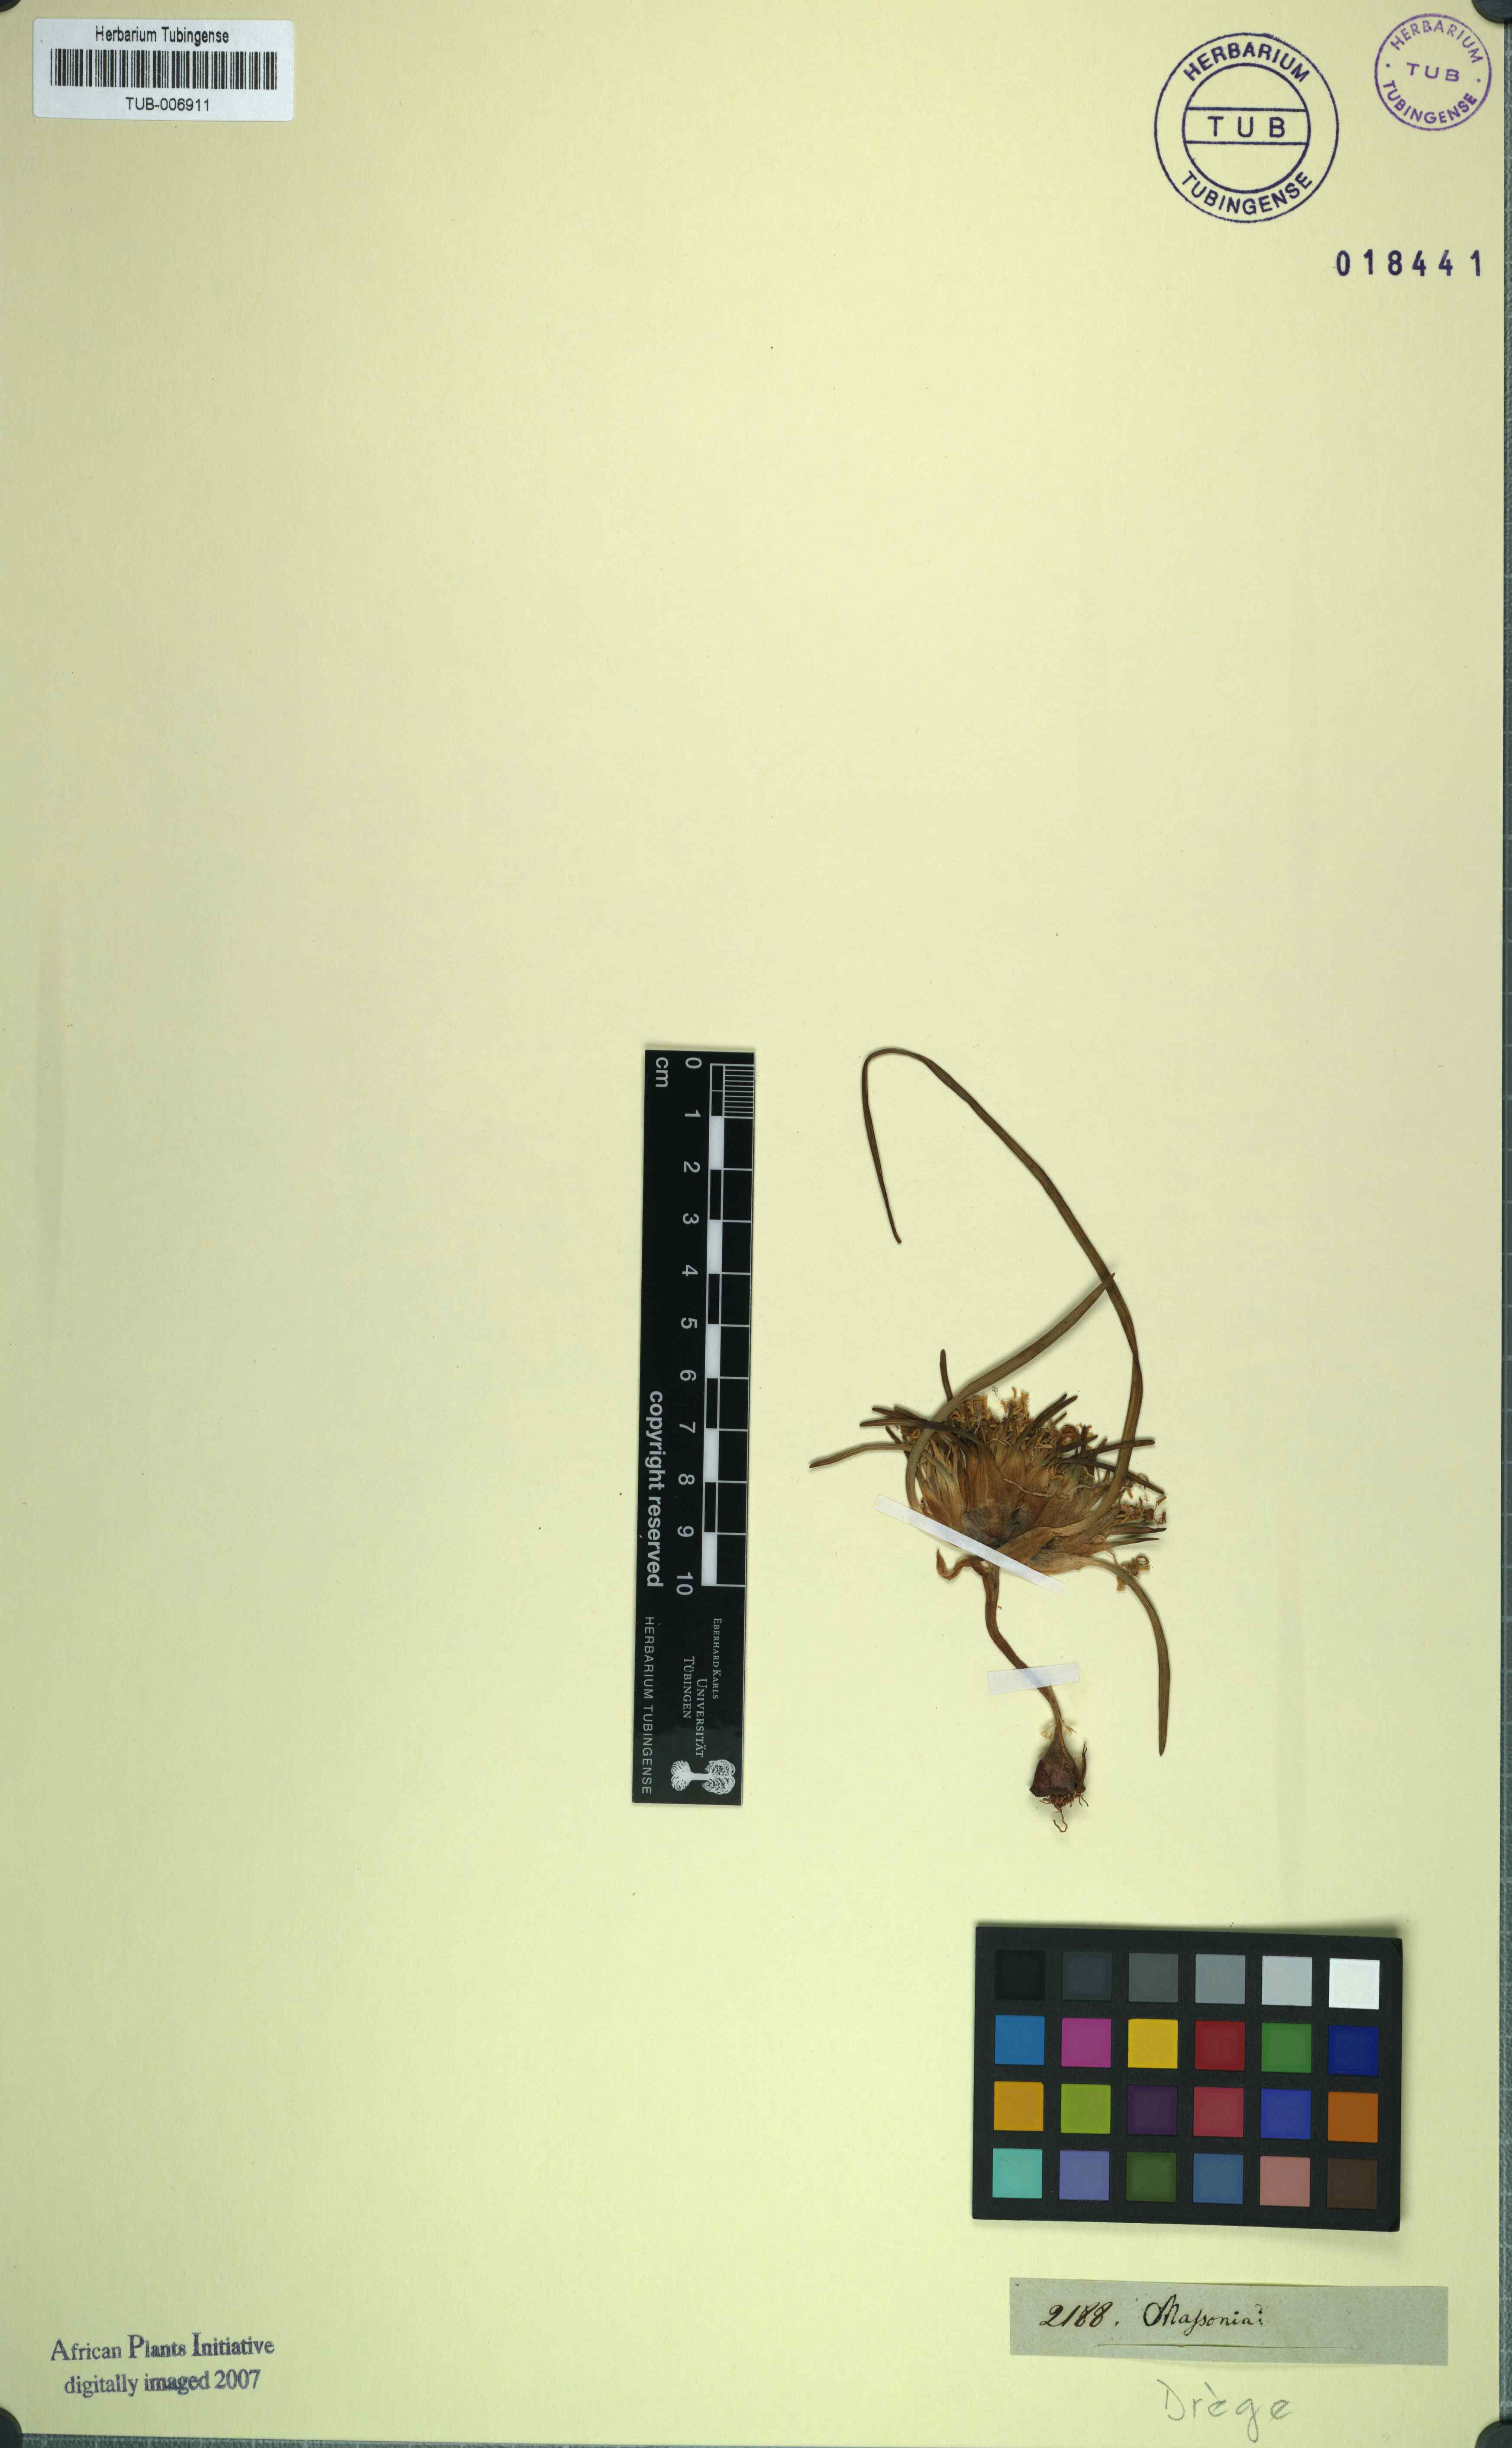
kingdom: Plantae
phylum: Tracheophyta
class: Liliopsida
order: Asparagales
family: Asparagaceae
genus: Massonia
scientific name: Massonia
